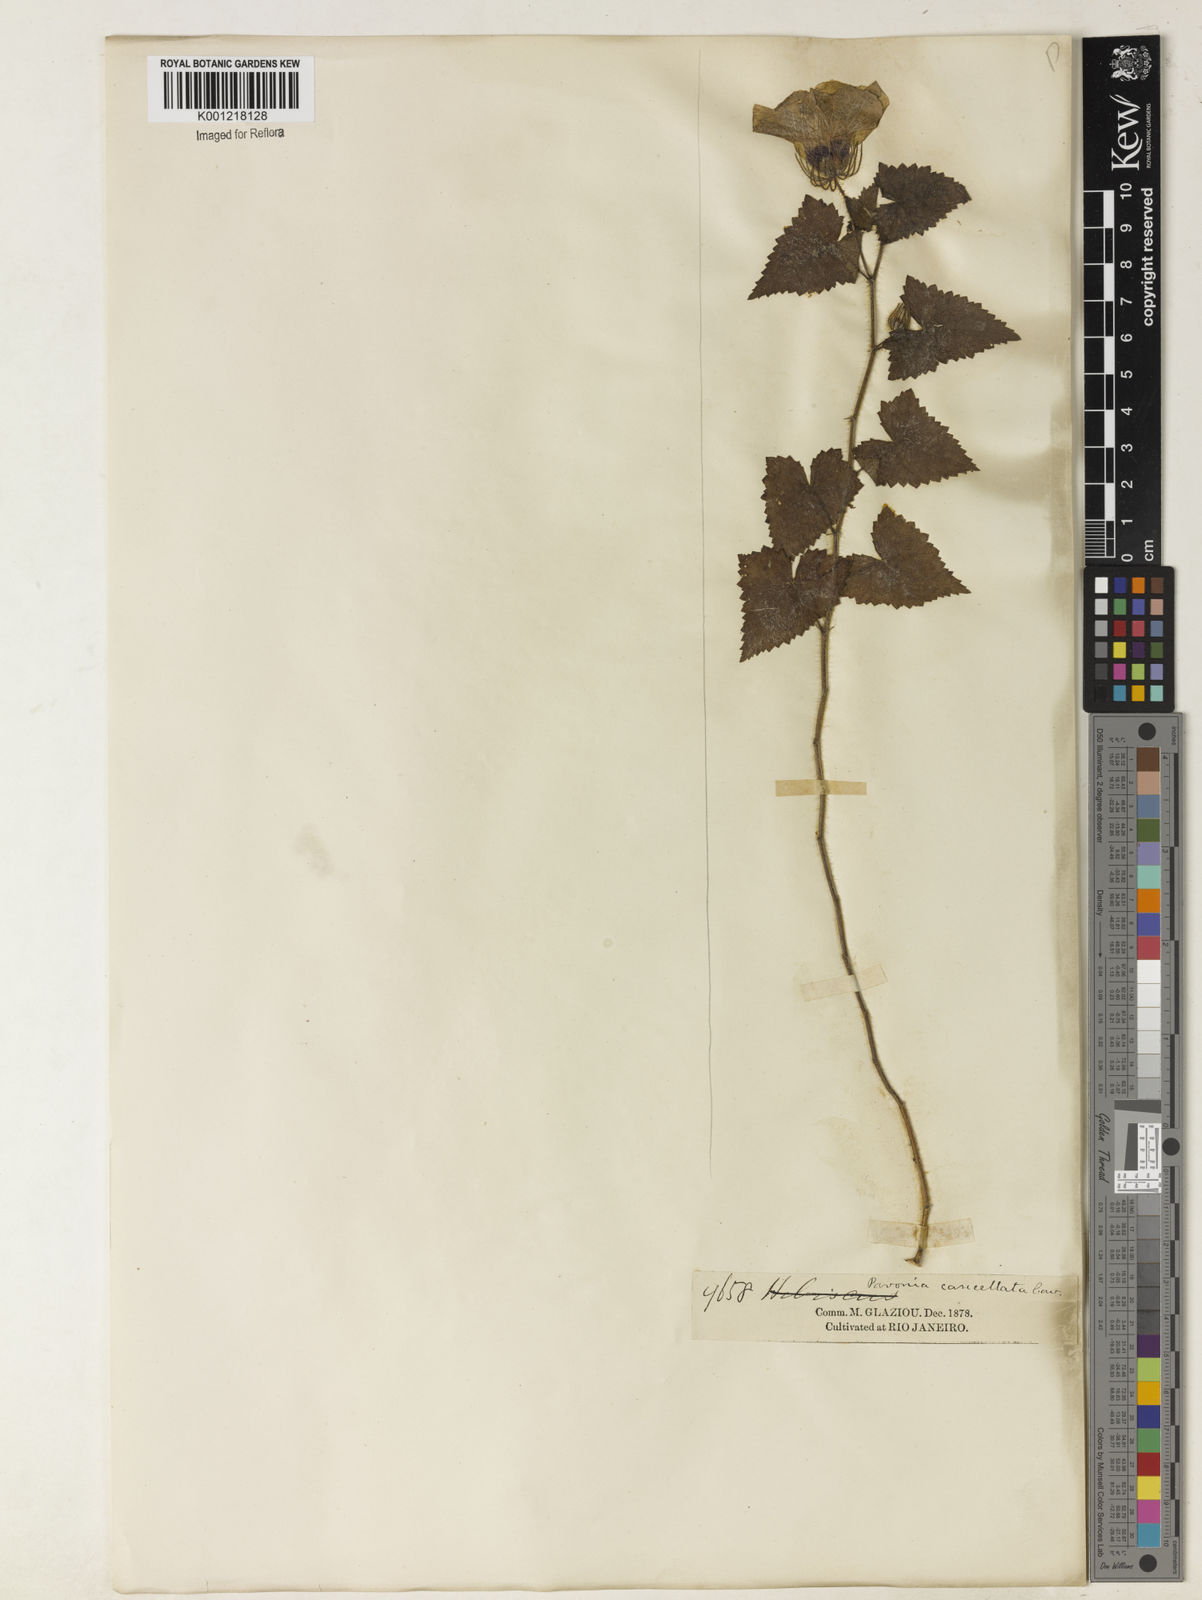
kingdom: Plantae
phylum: Tracheophyta
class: Magnoliopsida
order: Malvales
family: Malvaceae
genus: Pavonia
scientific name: Pavonia cancellata
